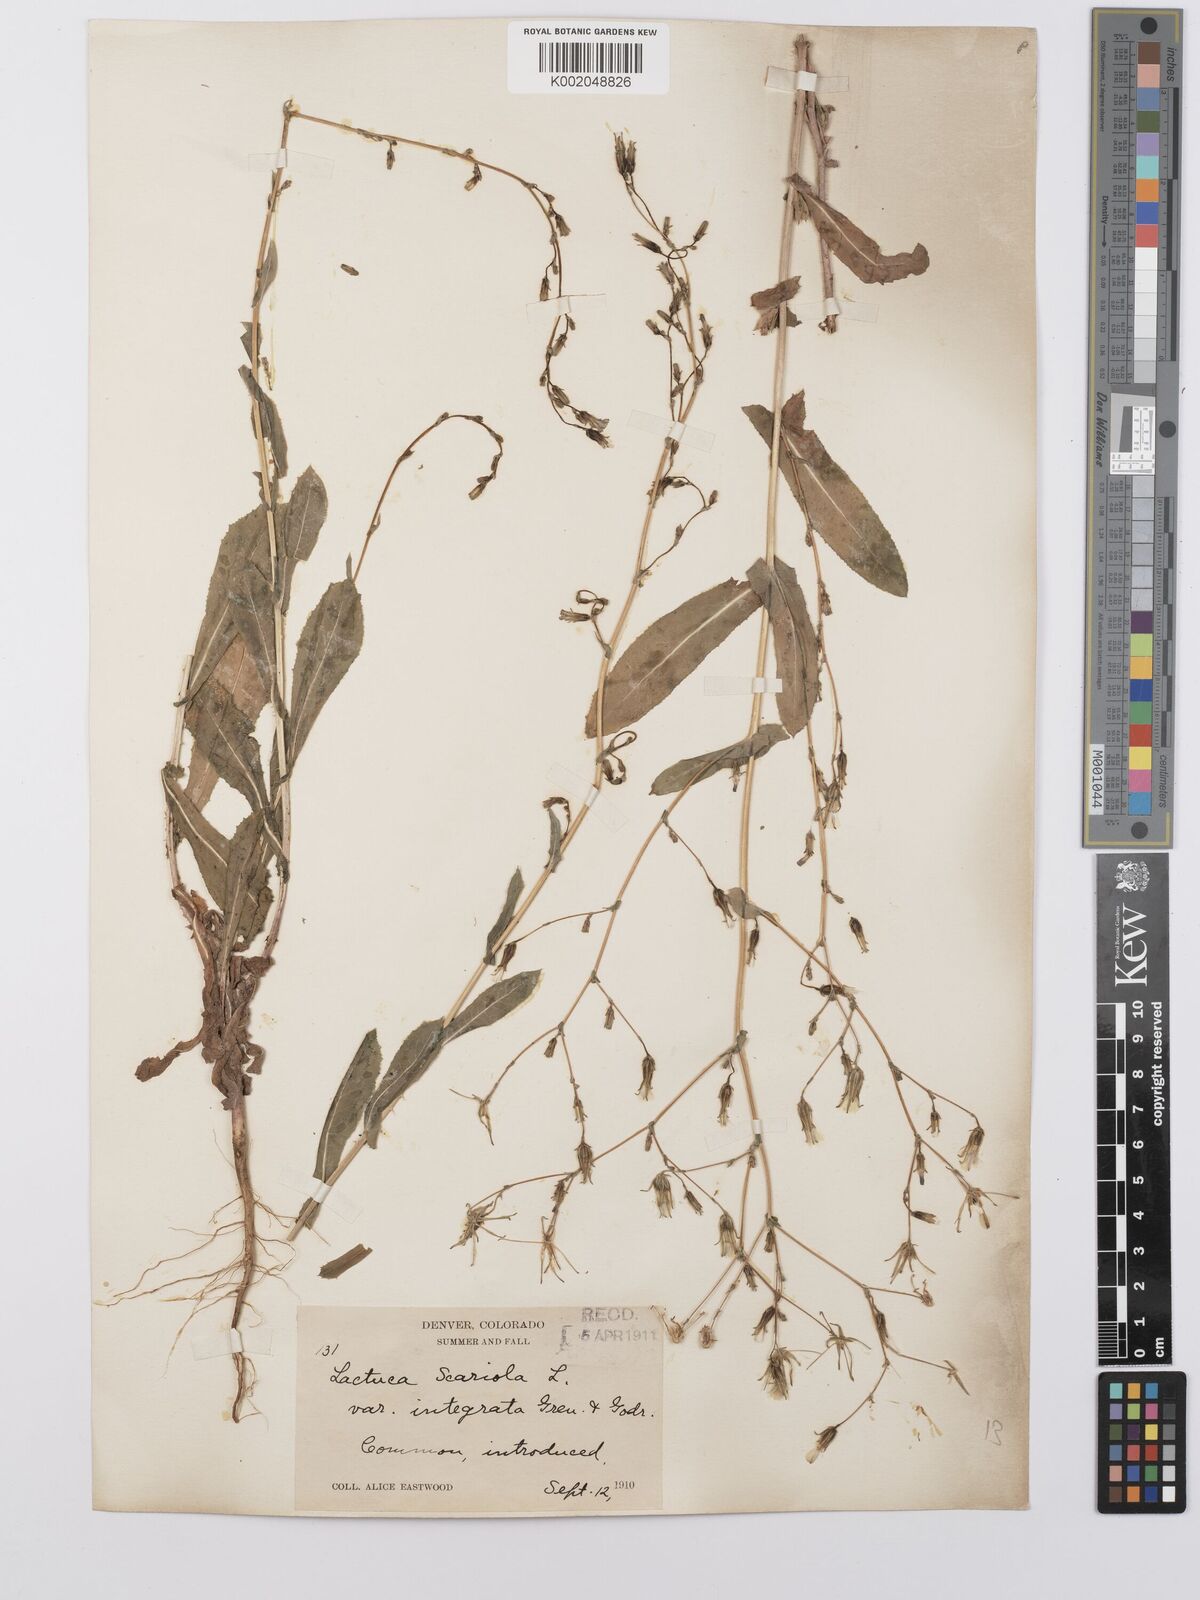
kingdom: Plantae
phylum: Tracheophyta
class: Magnoliopsida
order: Asterales
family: Asteraceae
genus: Lactuca
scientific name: Lactuca serriola
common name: Prickly lettuce
